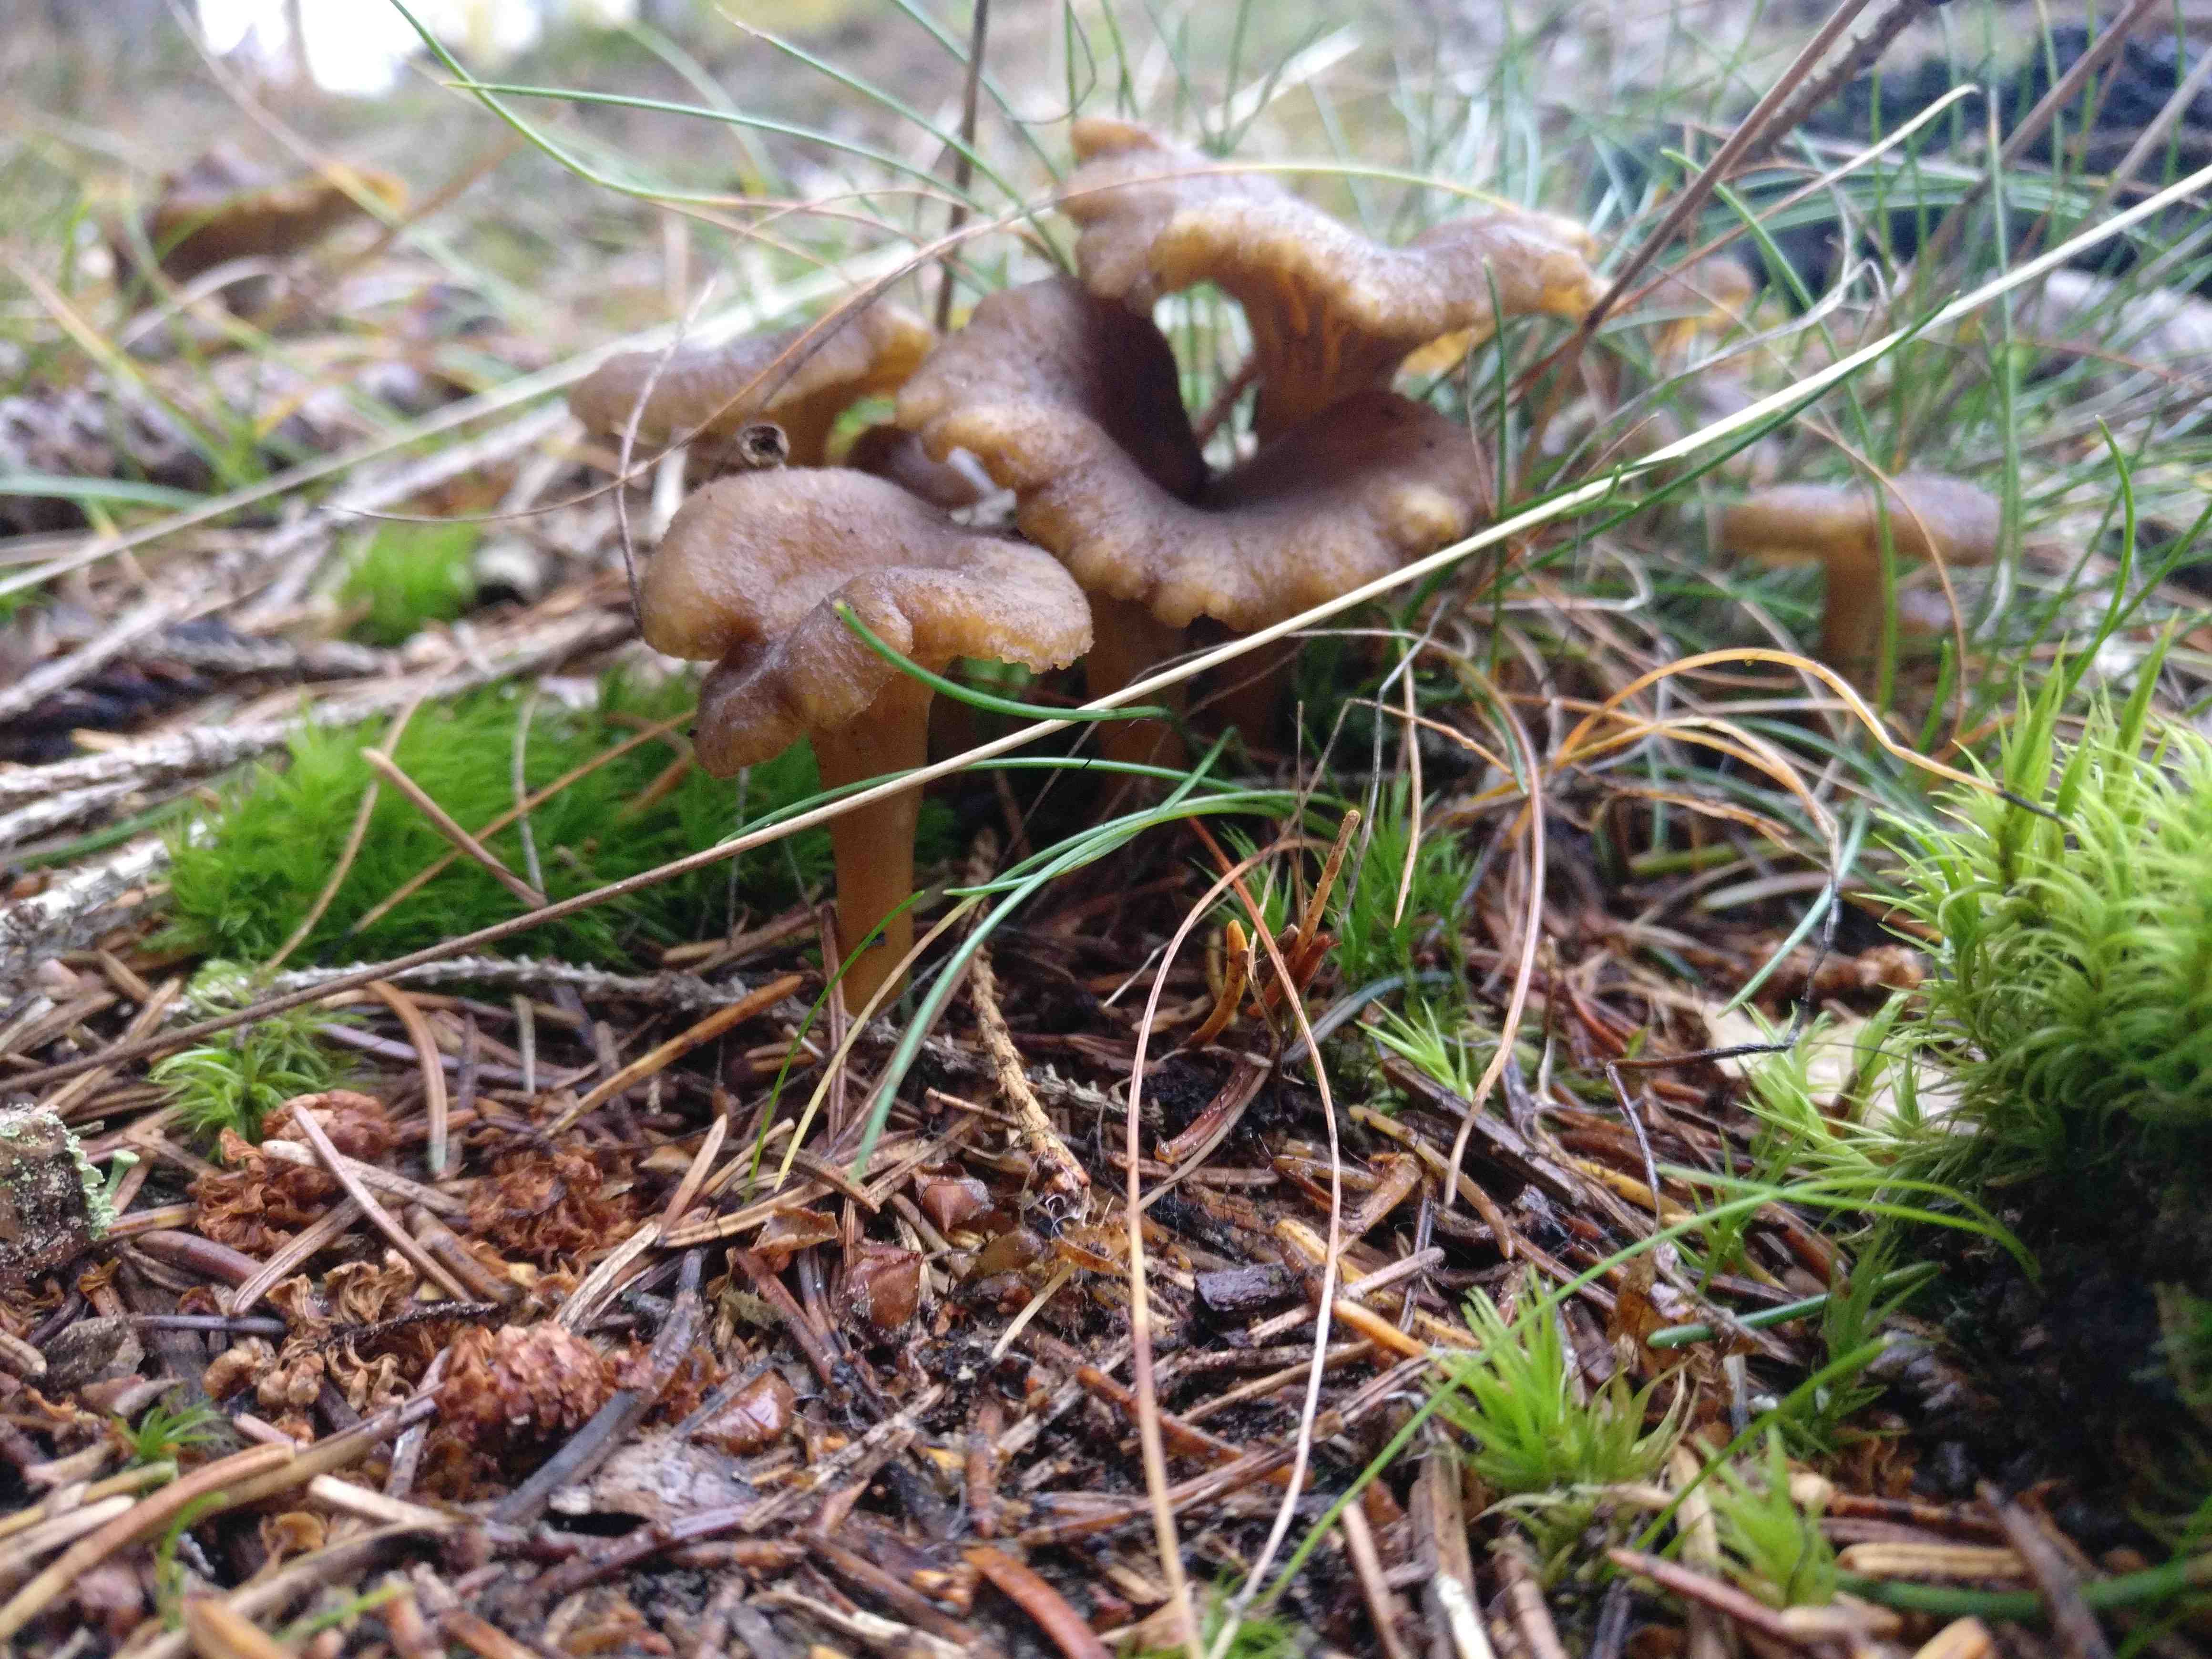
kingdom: Fungi
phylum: Basidiomycota
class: Agaricomycetes
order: Cantharellales
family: Hydnaceae
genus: Craterellus
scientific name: Craterellus tubaeformis
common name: tragt-kantarel
